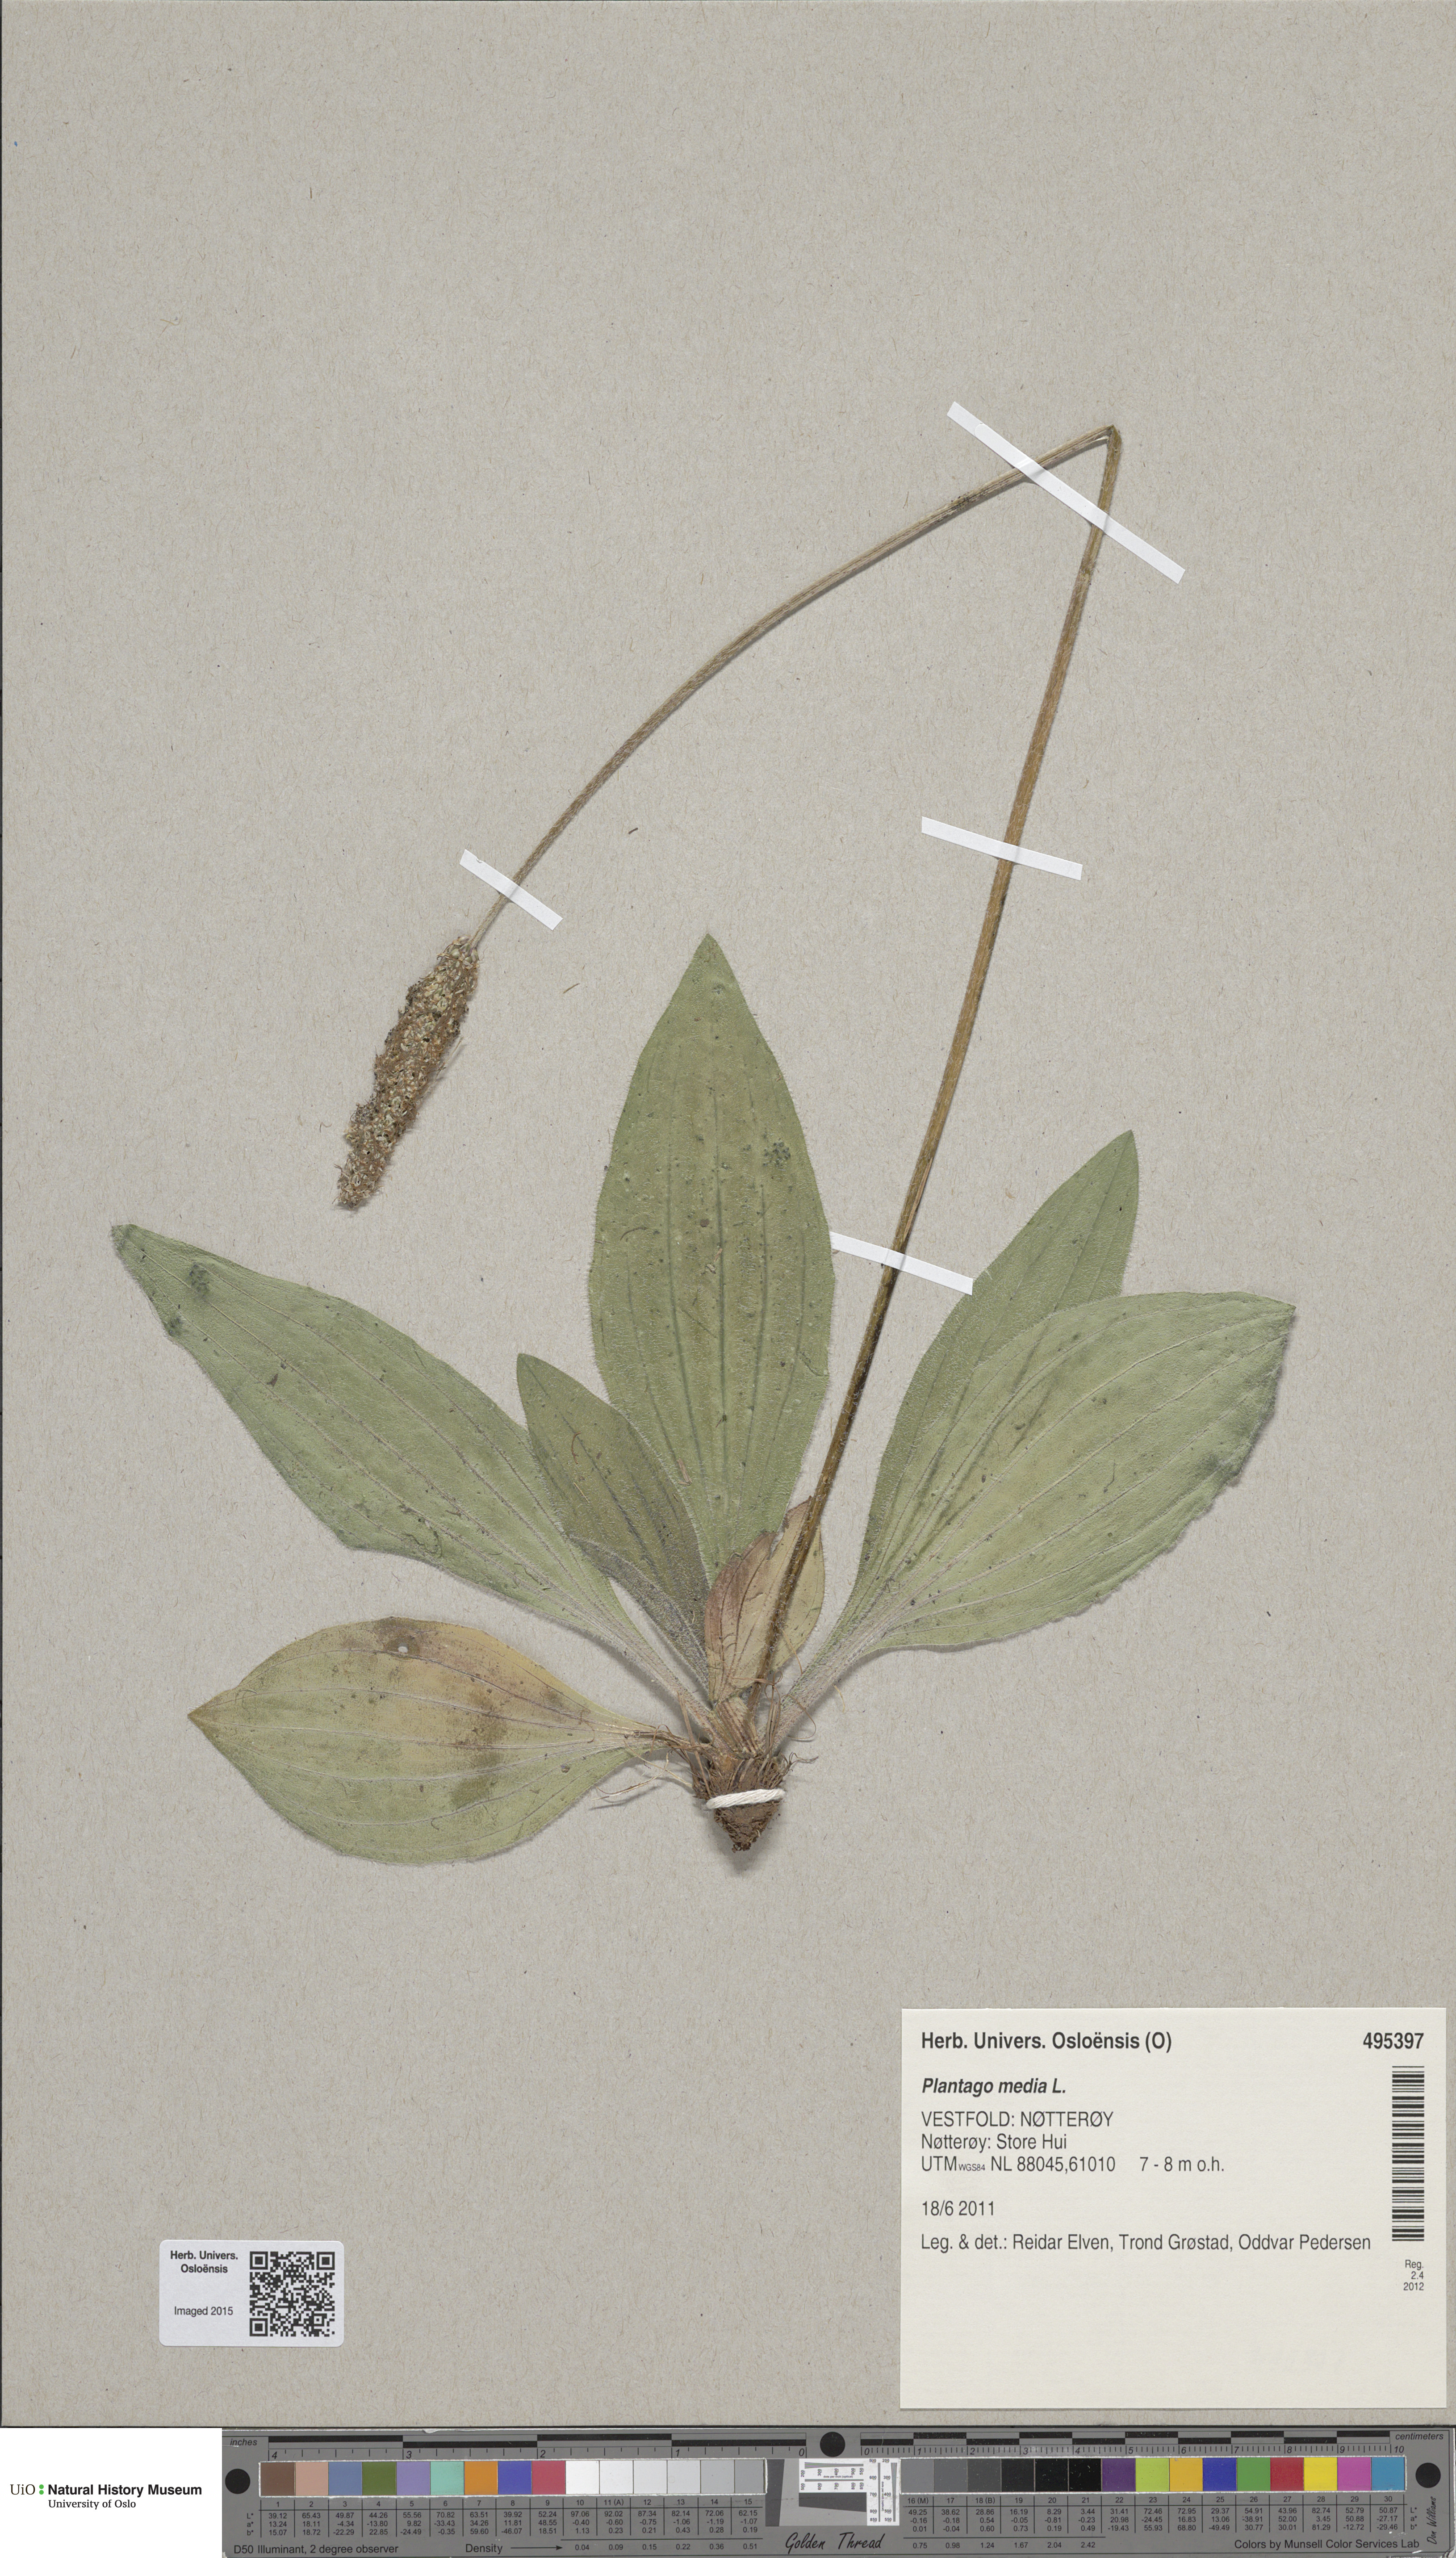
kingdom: Plantae
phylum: Tracheophyta
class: Magnoliopsida
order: Lamiales
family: Plantaginaceae
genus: Plantago
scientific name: Plantago media
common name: Hoary plantain
